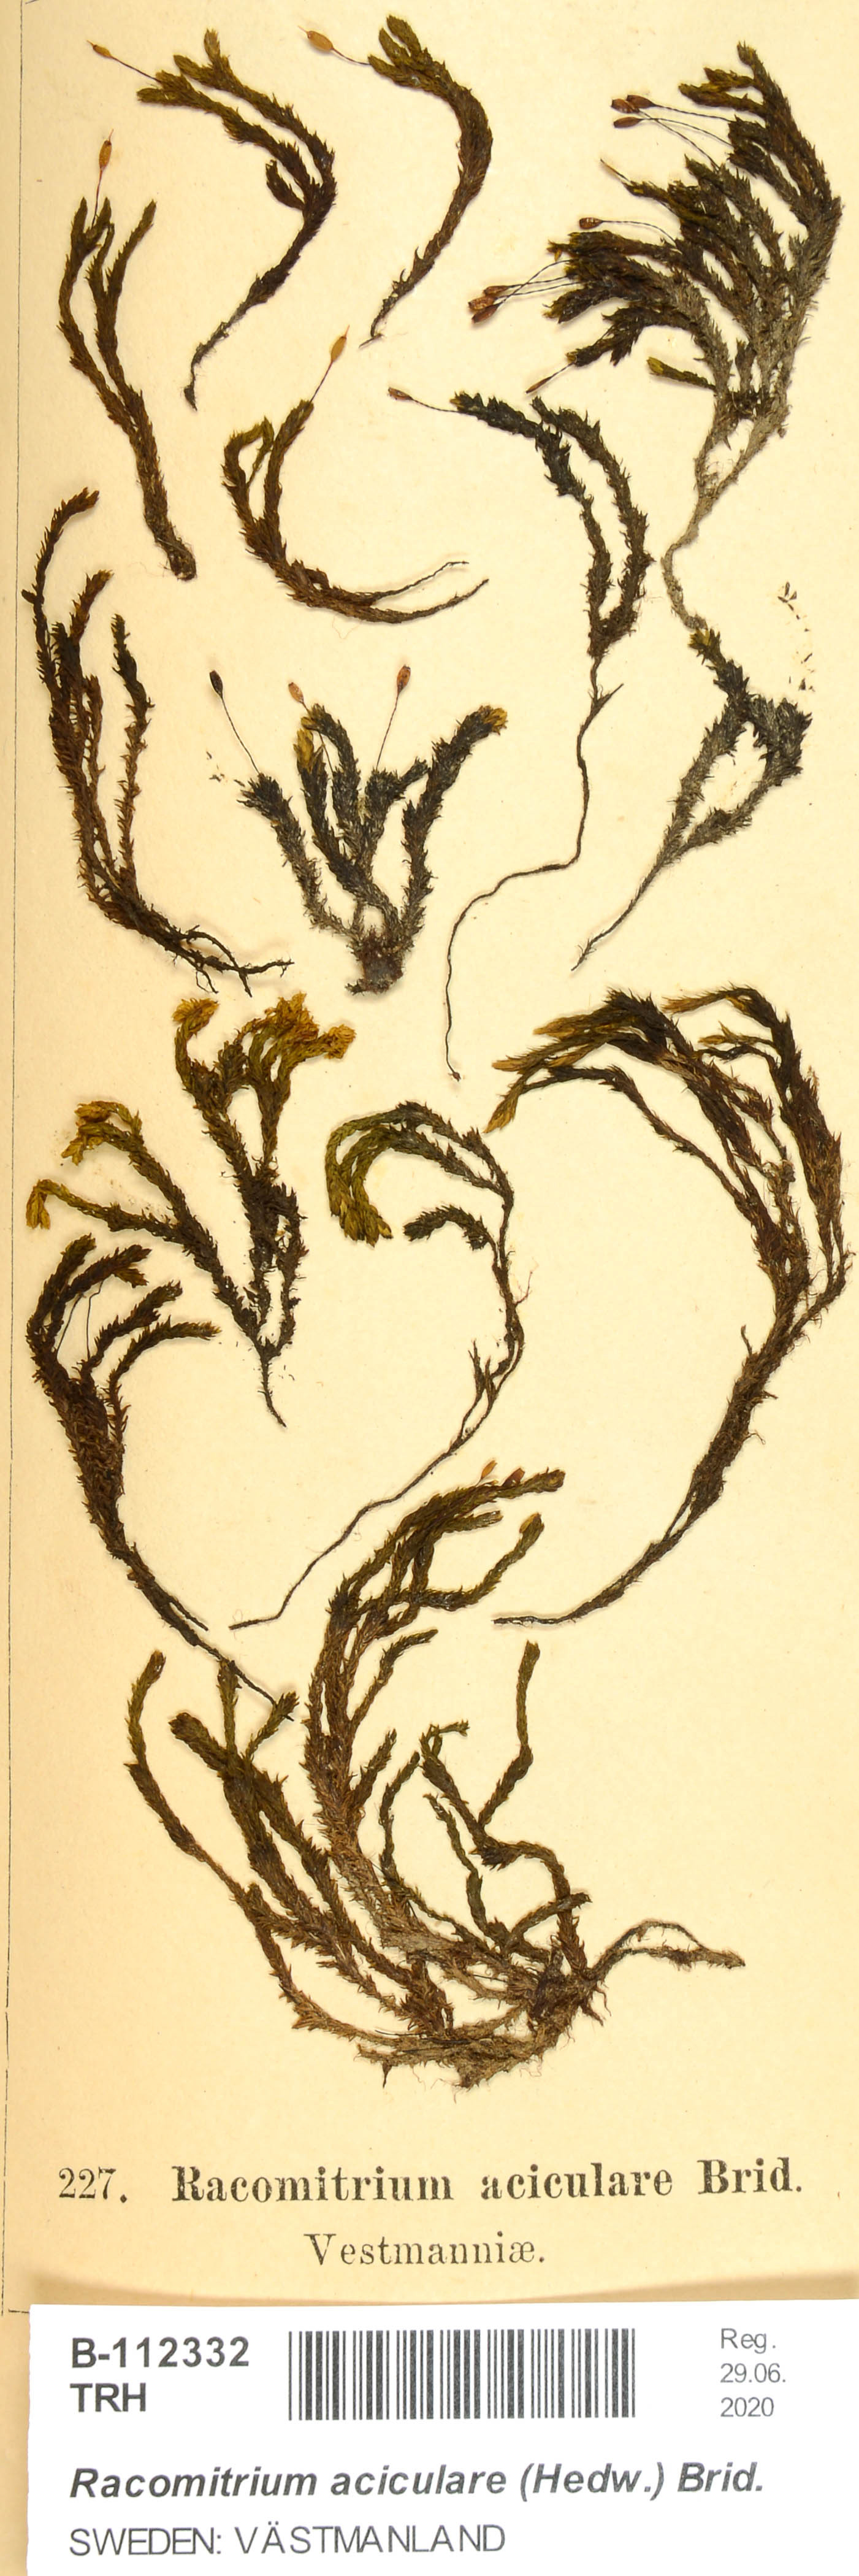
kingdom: Plantae
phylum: Bryophyta
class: Bryopsida
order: Grimmiales
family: Grimmiaceae
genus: Codriophorus
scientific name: Codriophorus acicularis
